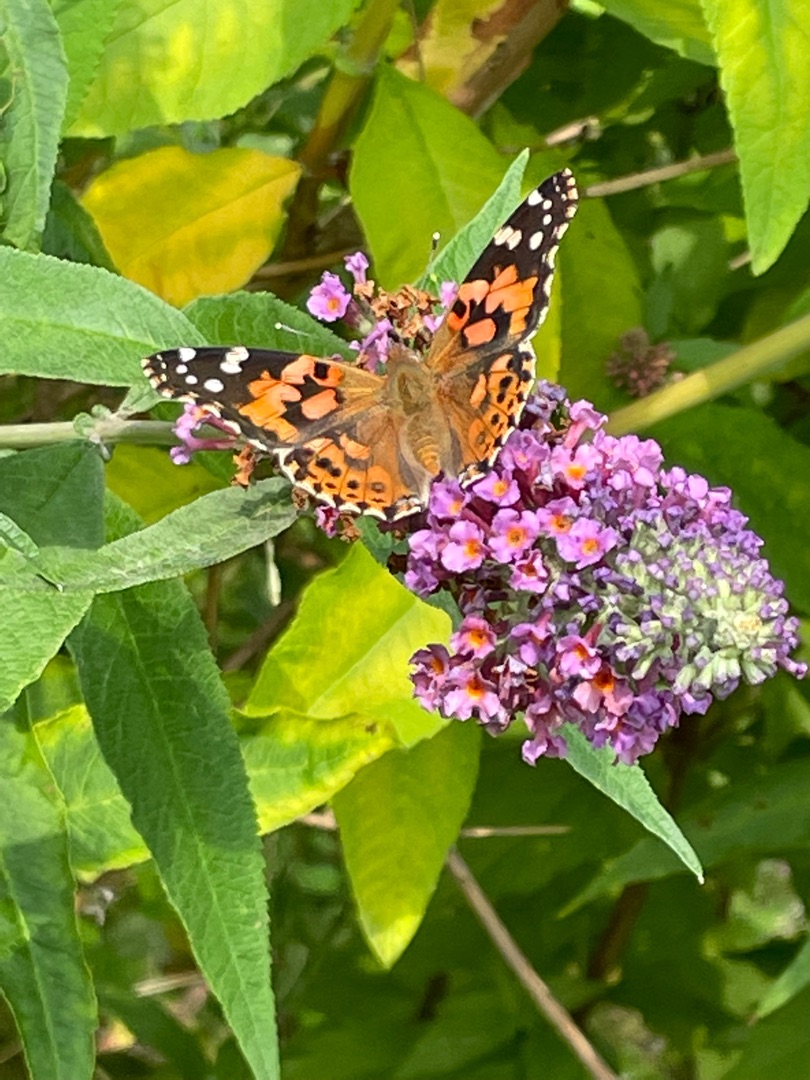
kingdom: Animalia
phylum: Arthropoda
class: Insecta
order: Lepidoptera
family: Nymphalidae
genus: Vanessa
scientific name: Vanessa cardui
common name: Tidselsommerfugl
